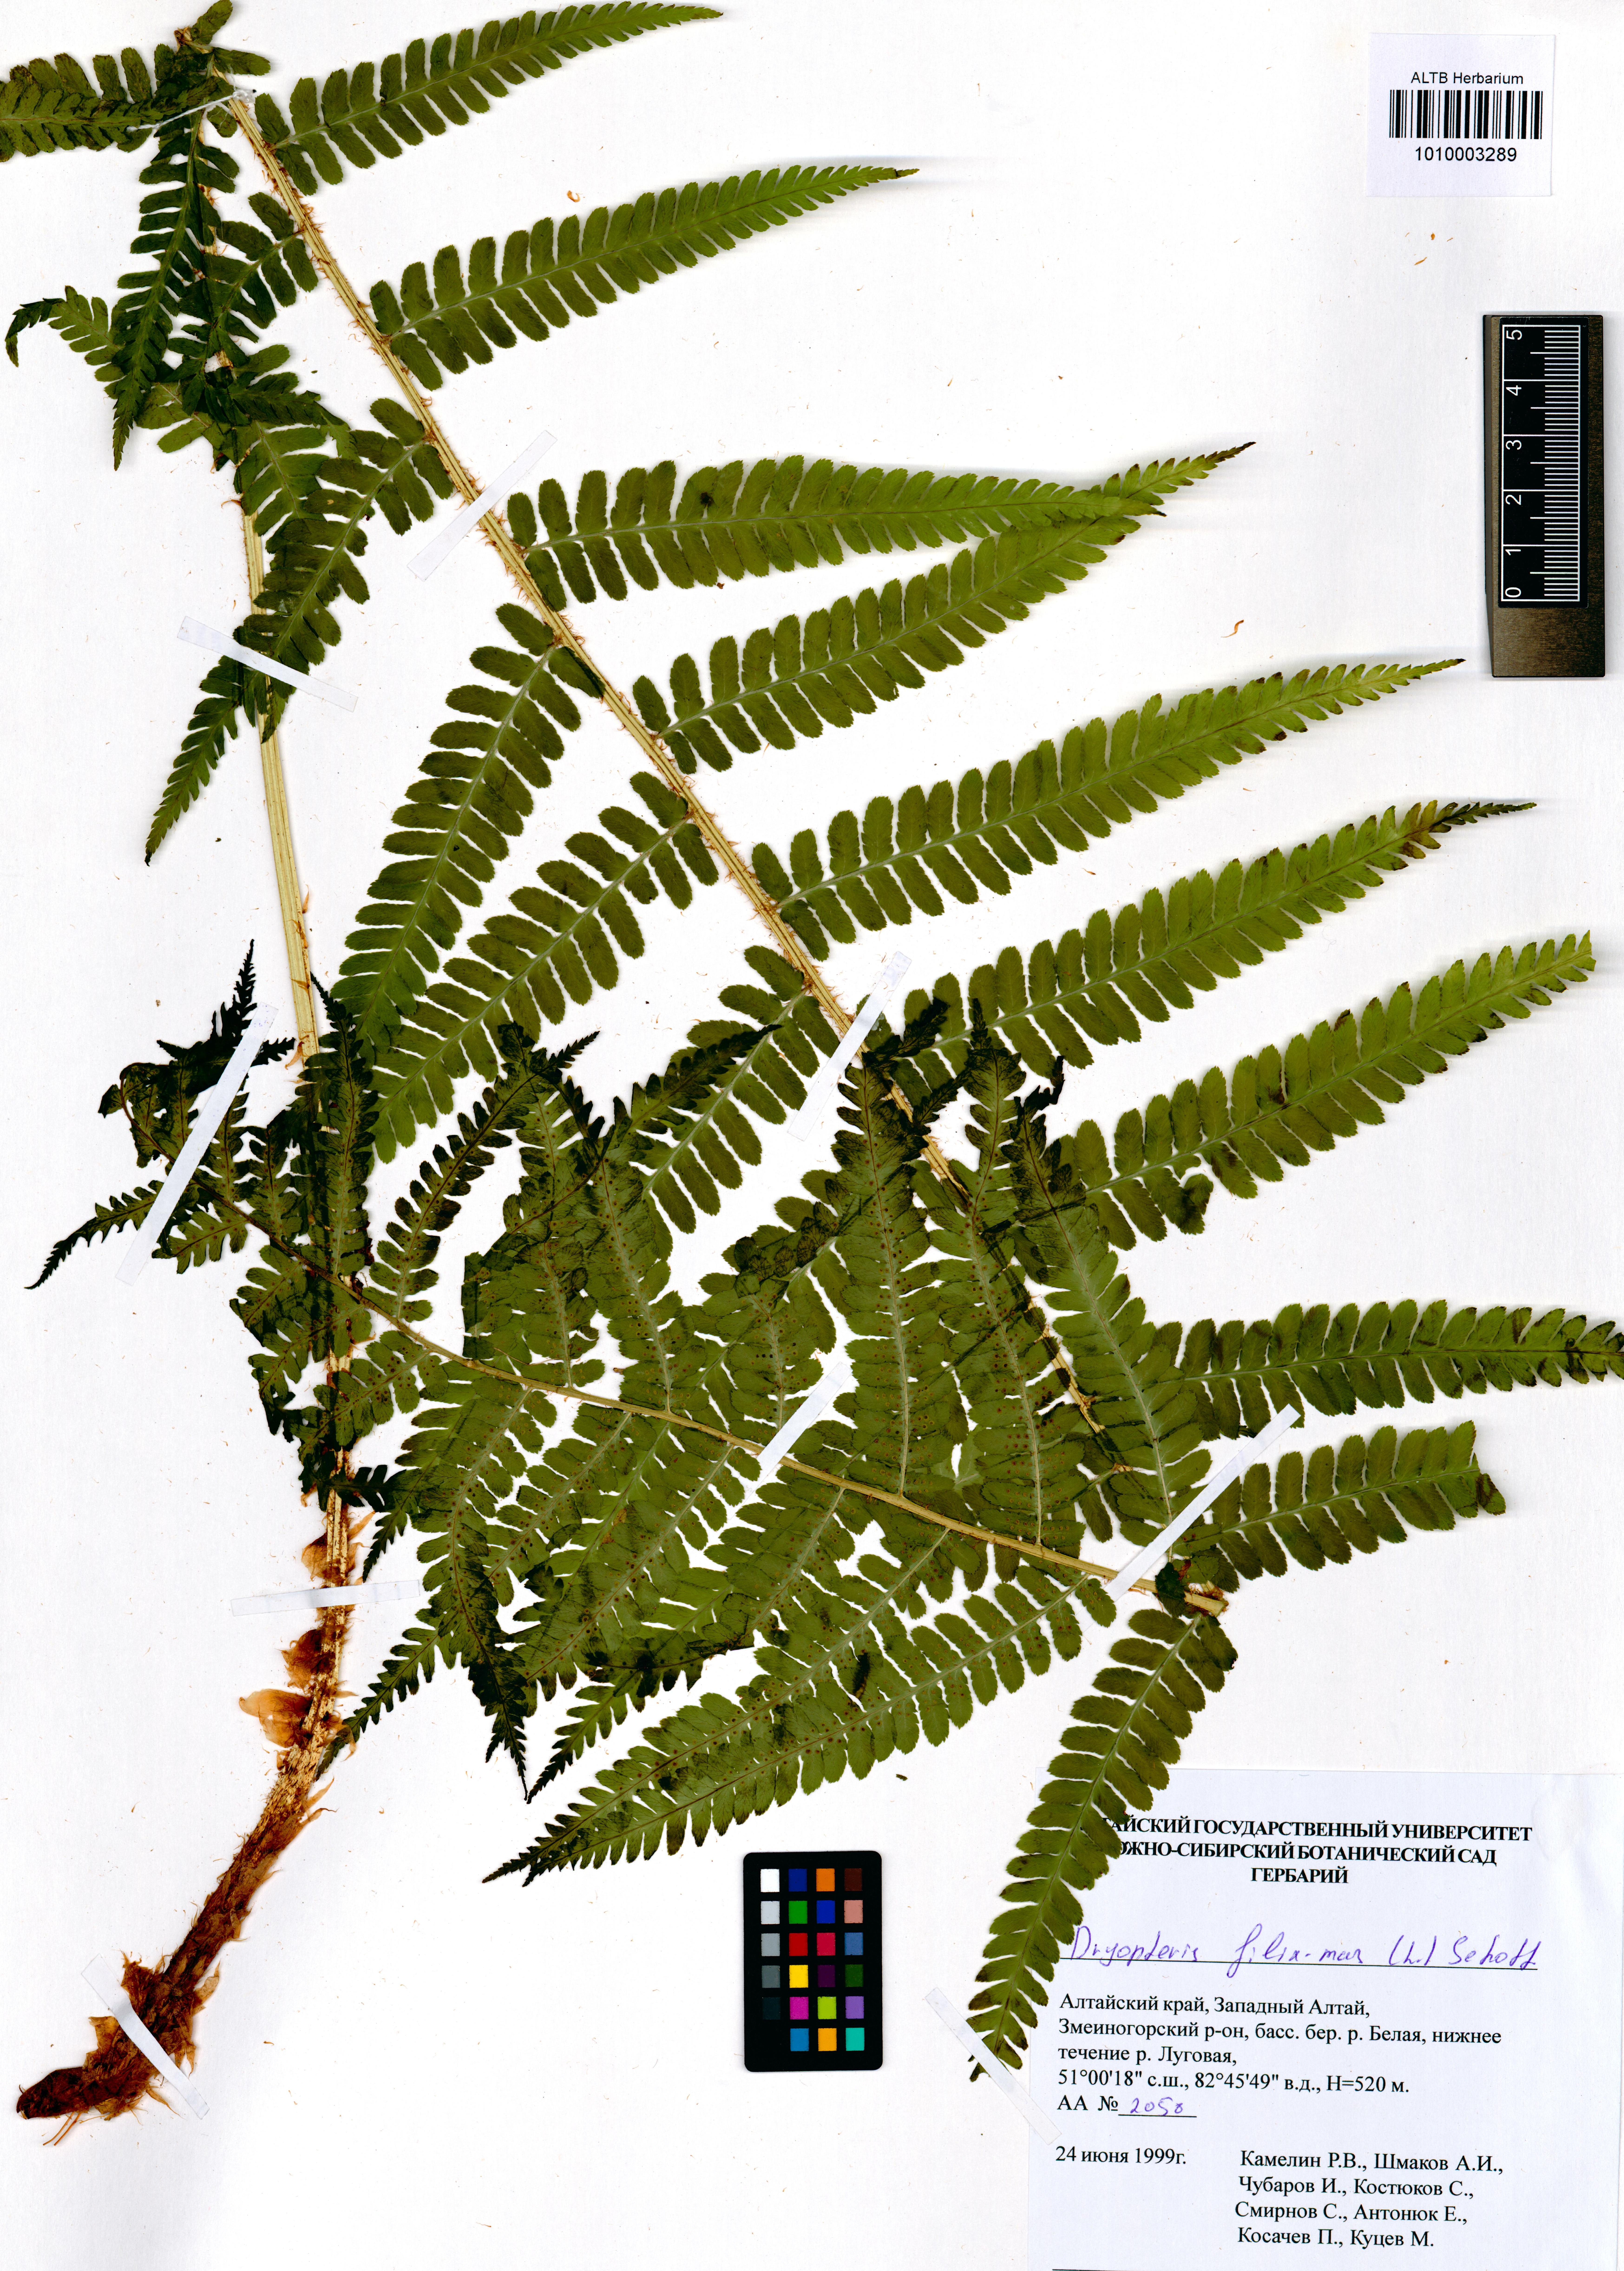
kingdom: Plantae
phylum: Tracheophyta
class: Polypodiopsida
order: Polypodiales
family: Dryopteridaceae
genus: Dryopteris
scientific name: Dryopteris filix-mas
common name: Male fern
